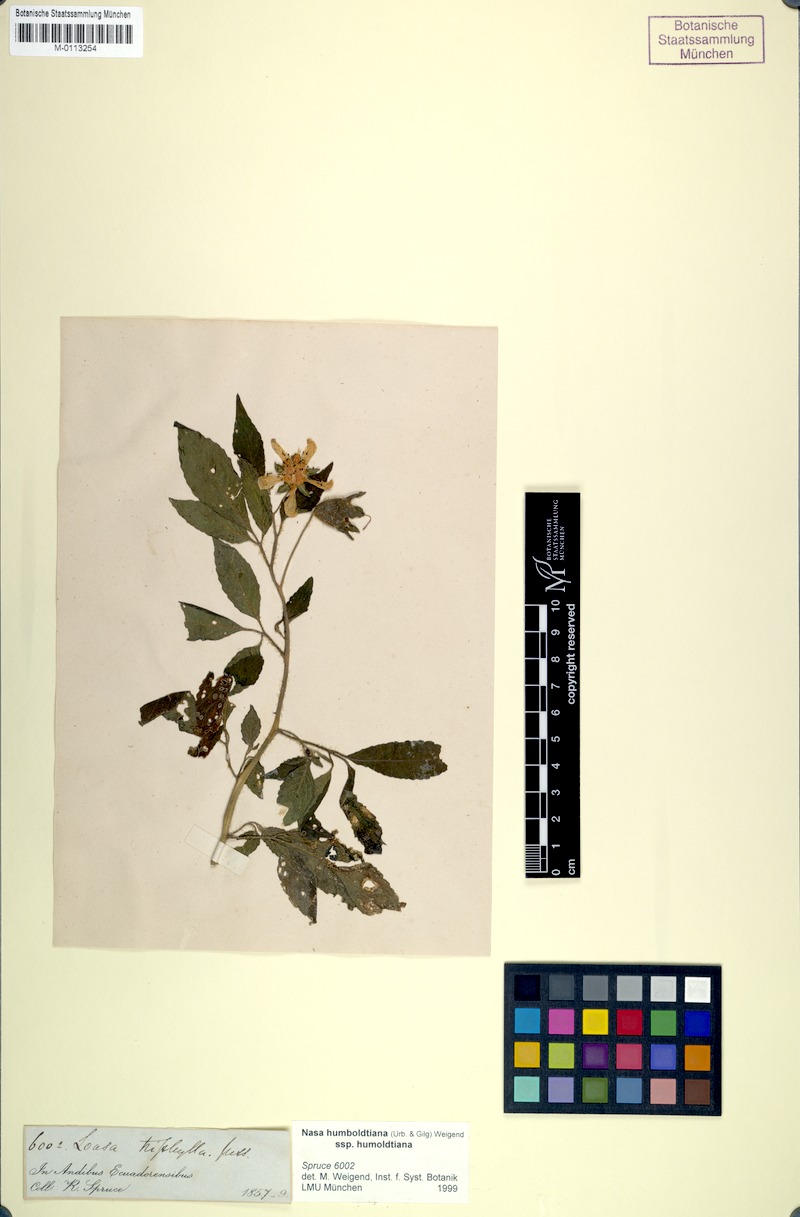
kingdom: Plantae
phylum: Tracheophyta
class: Magnoliopsida
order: Cornales
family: Loasaceae
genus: Nasa
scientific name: Nasa humboldtiana
